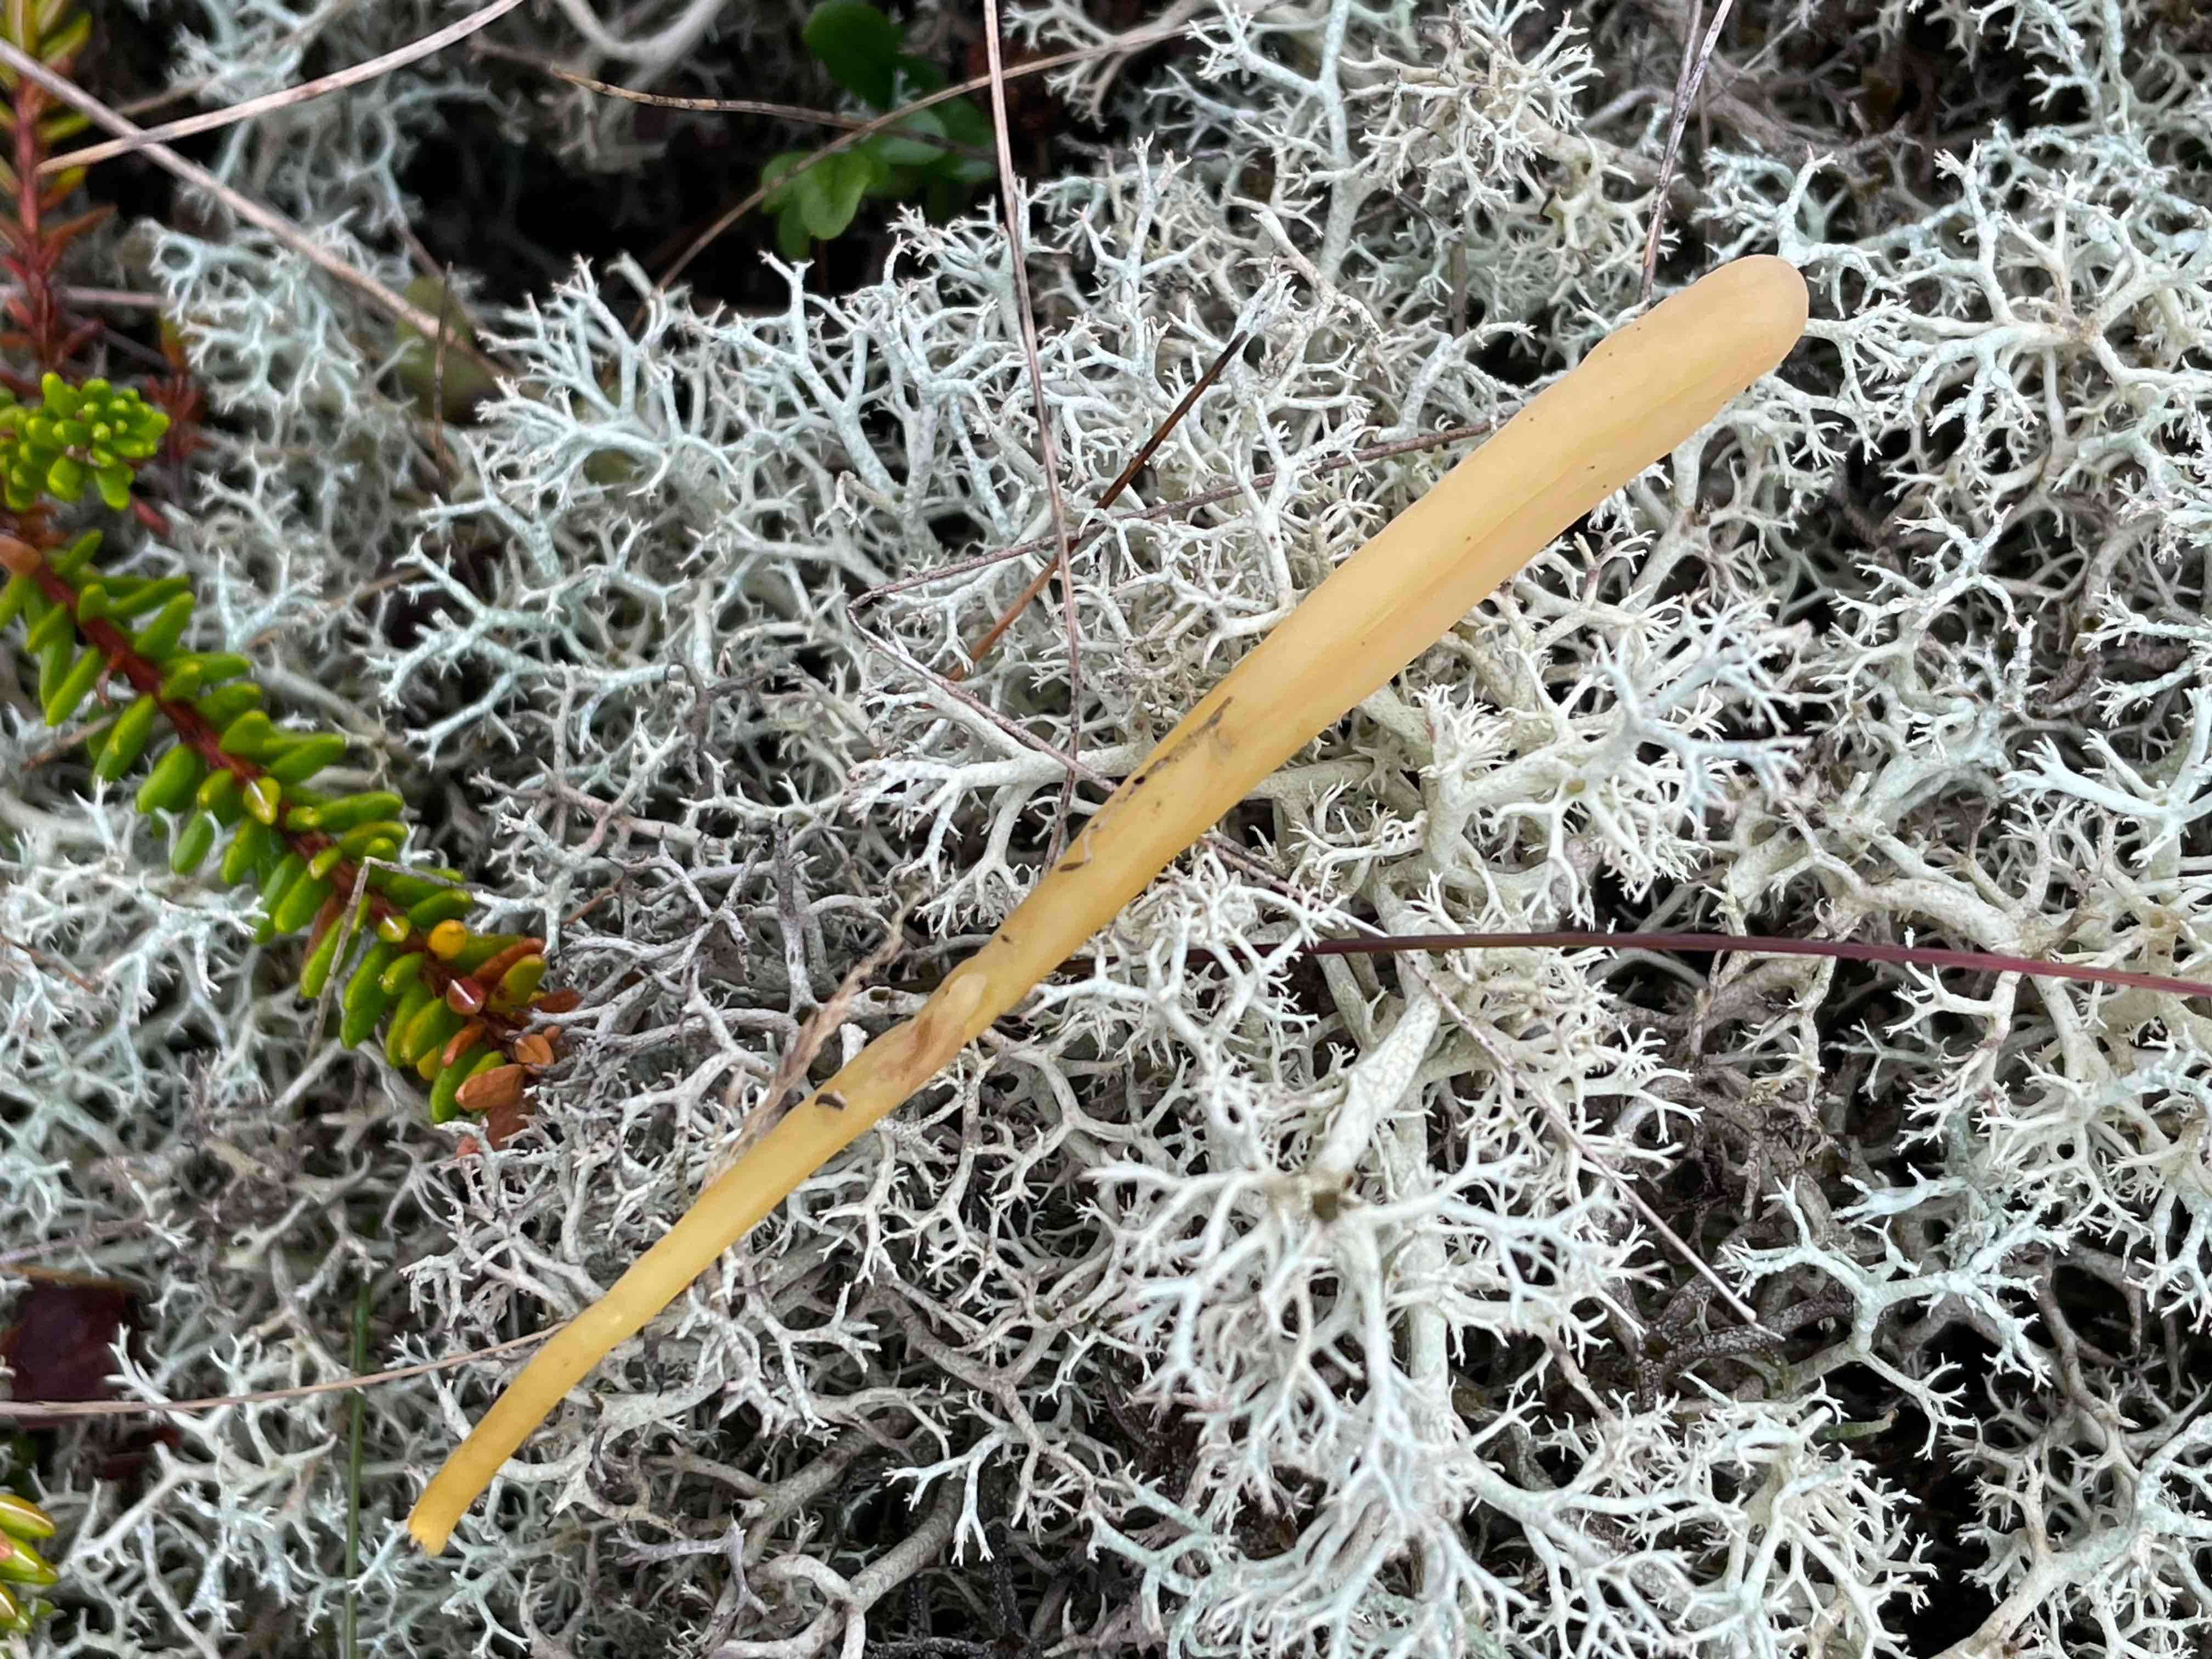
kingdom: Fungi
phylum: Basidiomycota
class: Agaricomycetes
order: Agaricales
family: Clavariaceae
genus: Clavaria
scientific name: Clavaria argillacea
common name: lerfarvet køllesvamp
